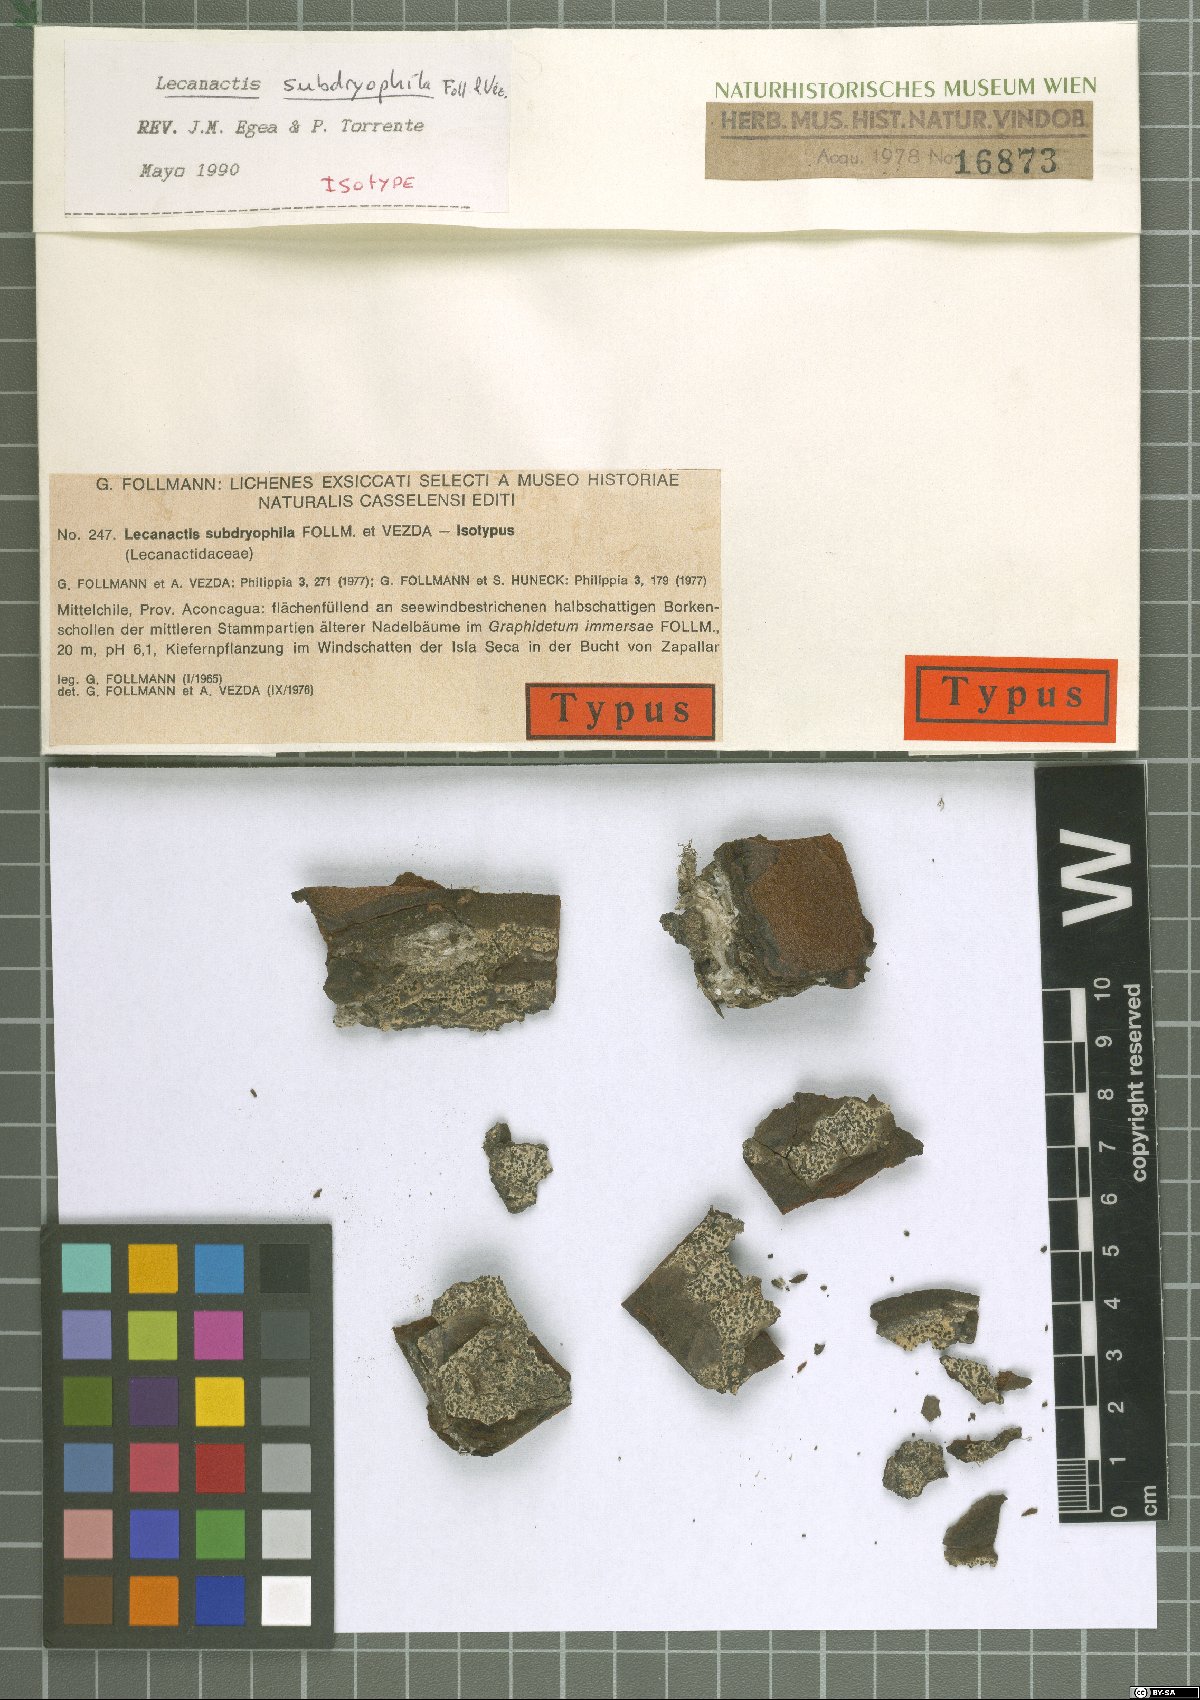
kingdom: Fungi
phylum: Ascomycota
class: Arthoniomycetes
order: Arthoniales
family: Lecanographaceae
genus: Lecanographa
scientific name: Lecanographa subdryophila
